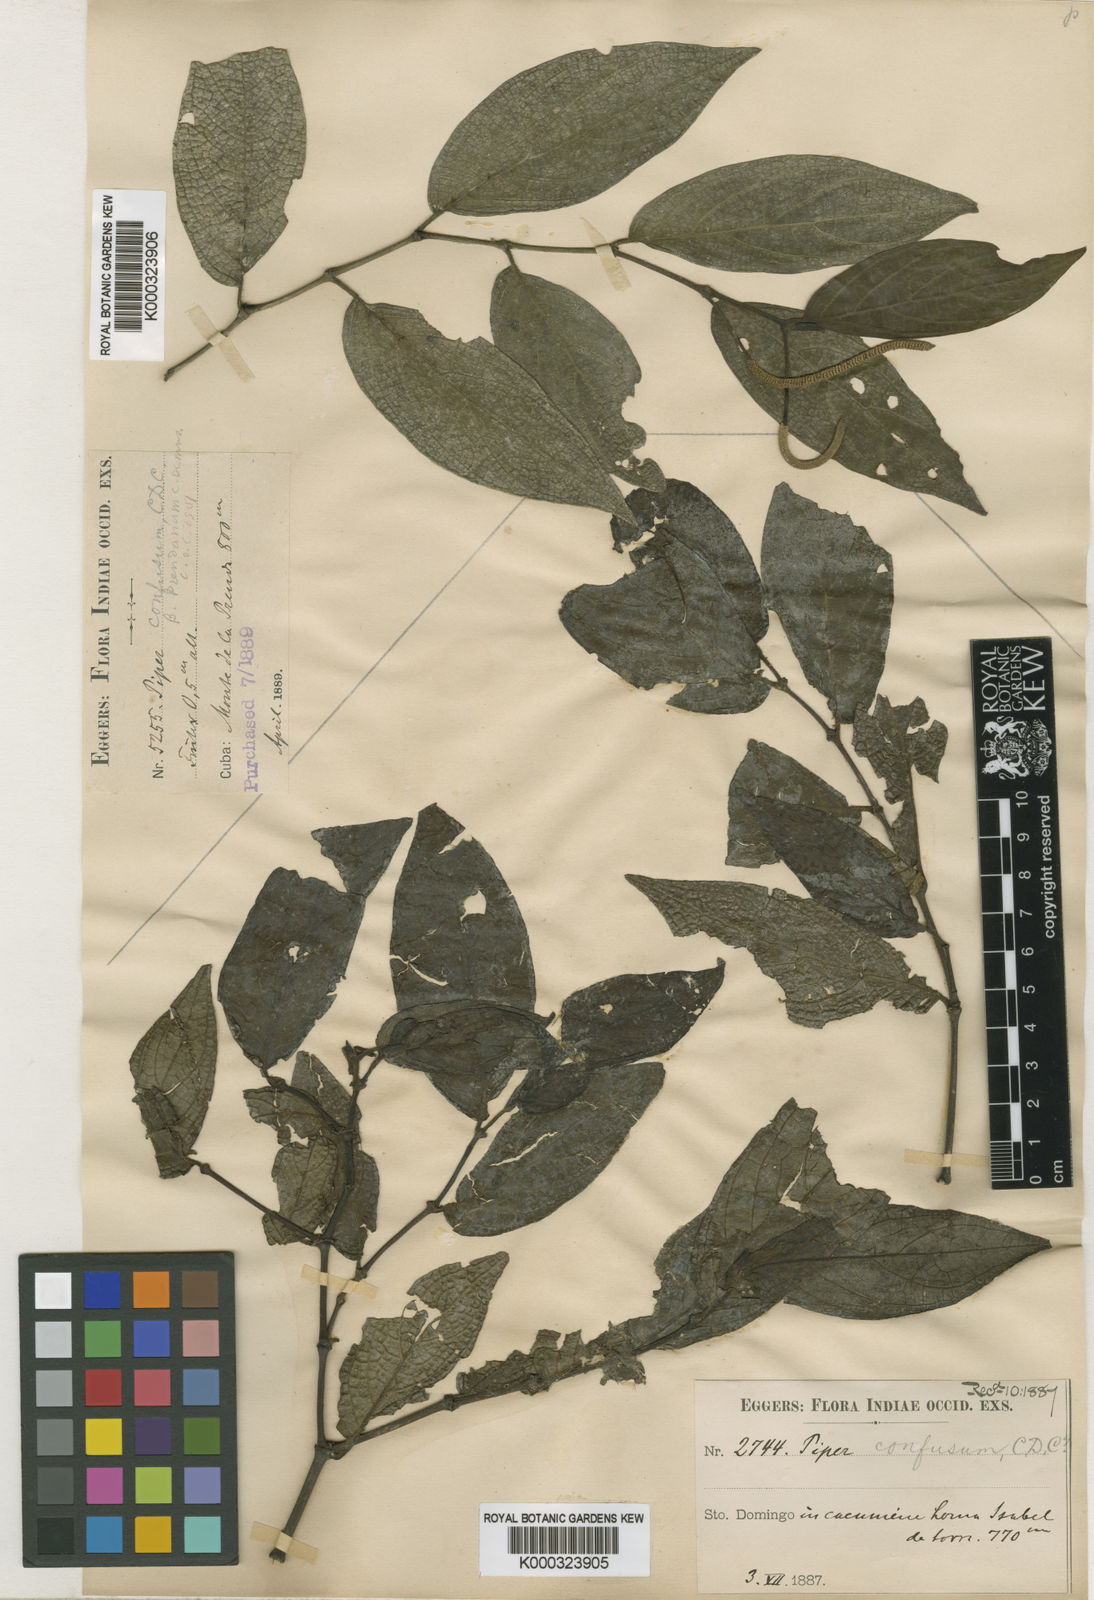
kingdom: Plantae
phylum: Tracheophyta
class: Magnoliopsida
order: Piperales
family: Piperaceae
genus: Piper
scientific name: Piper confusum
